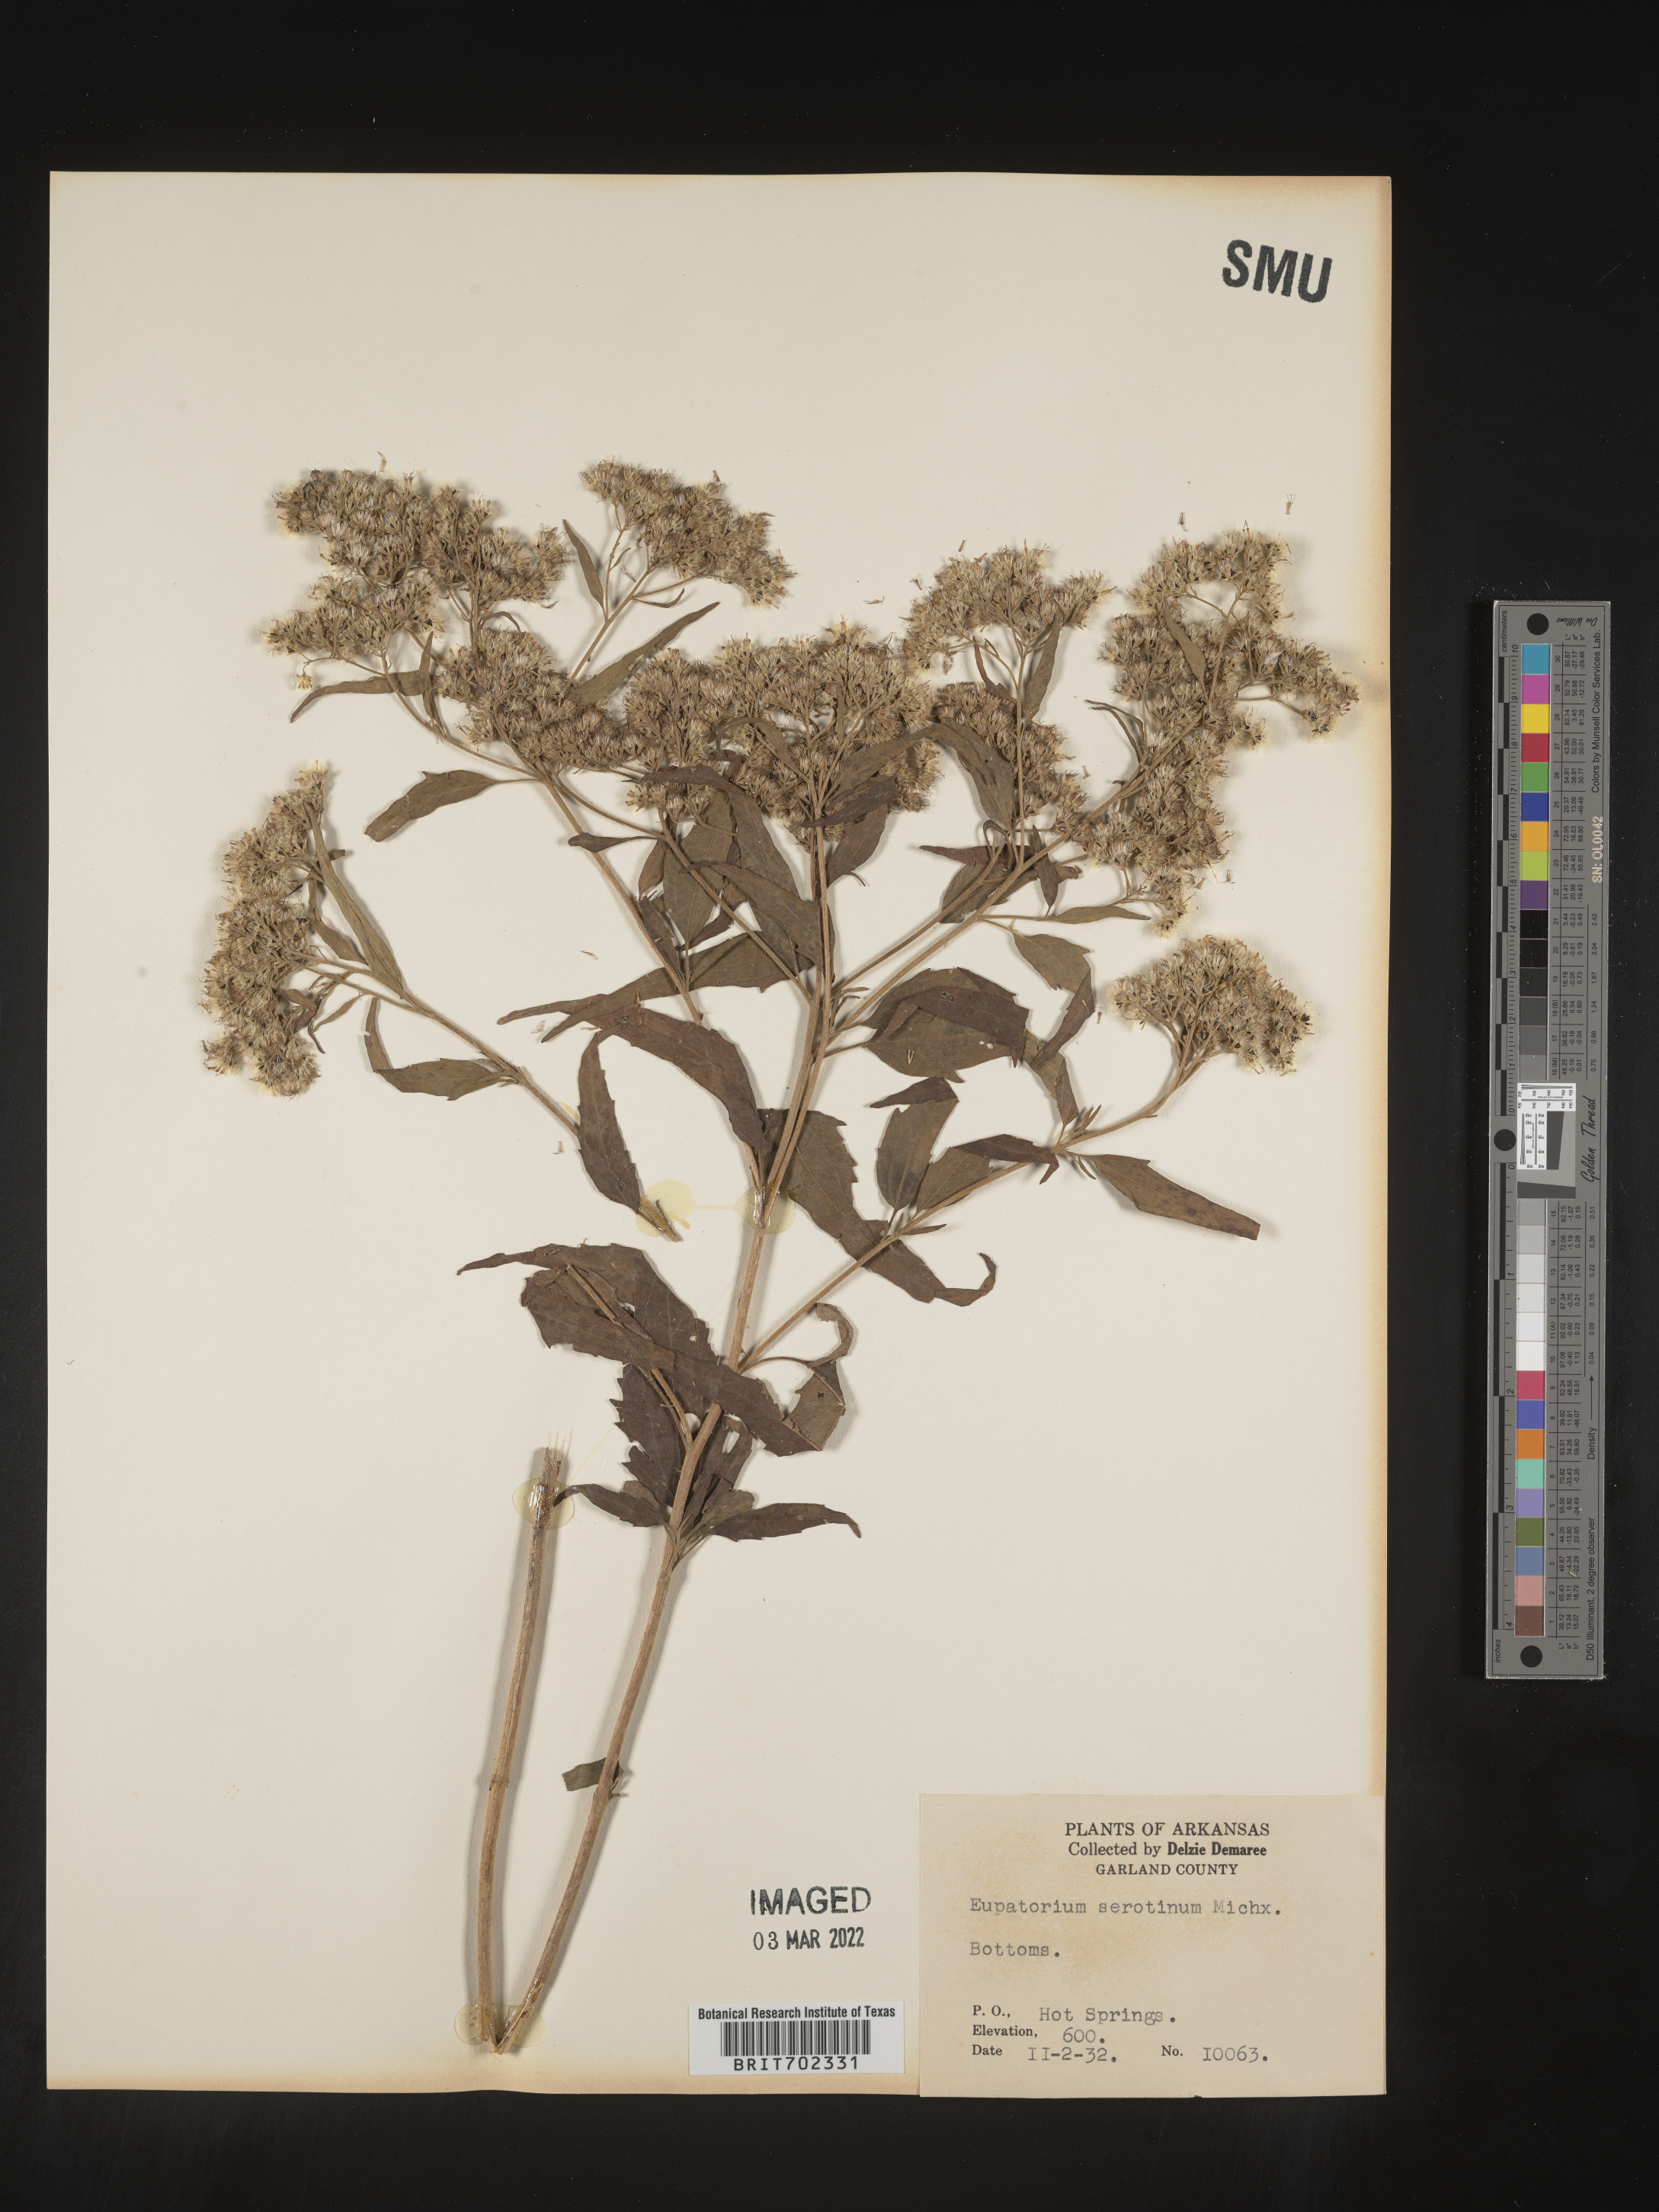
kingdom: Plantae
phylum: Tracheophyta
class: Magnoliopsida
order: Asterales
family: Asteraceae
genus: Eupatorium
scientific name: Eupatorium serotinum
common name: Late boneset
